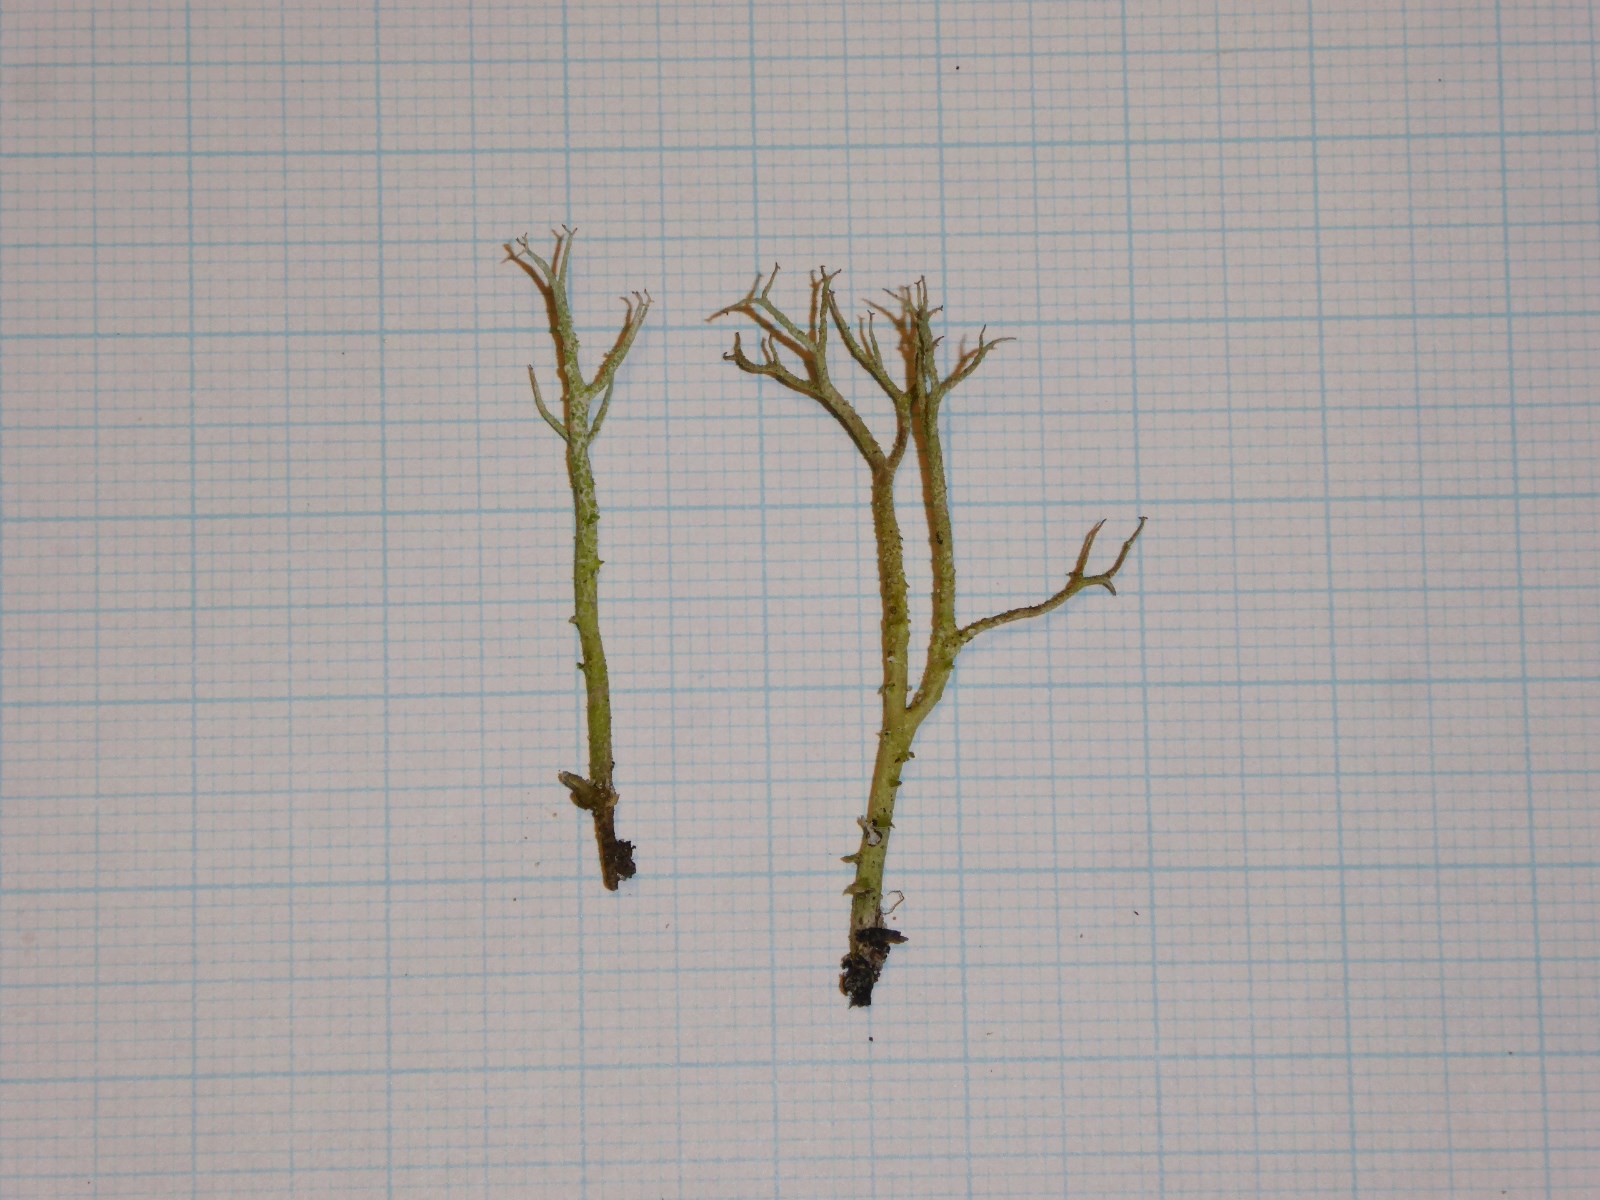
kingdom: Fungi
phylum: Ascomycota
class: Lecanoromycetes
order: Lecanorales
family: Cladoniaceae
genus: Cladonia
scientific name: Cladonia scabriuscula
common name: ru bægerlav
